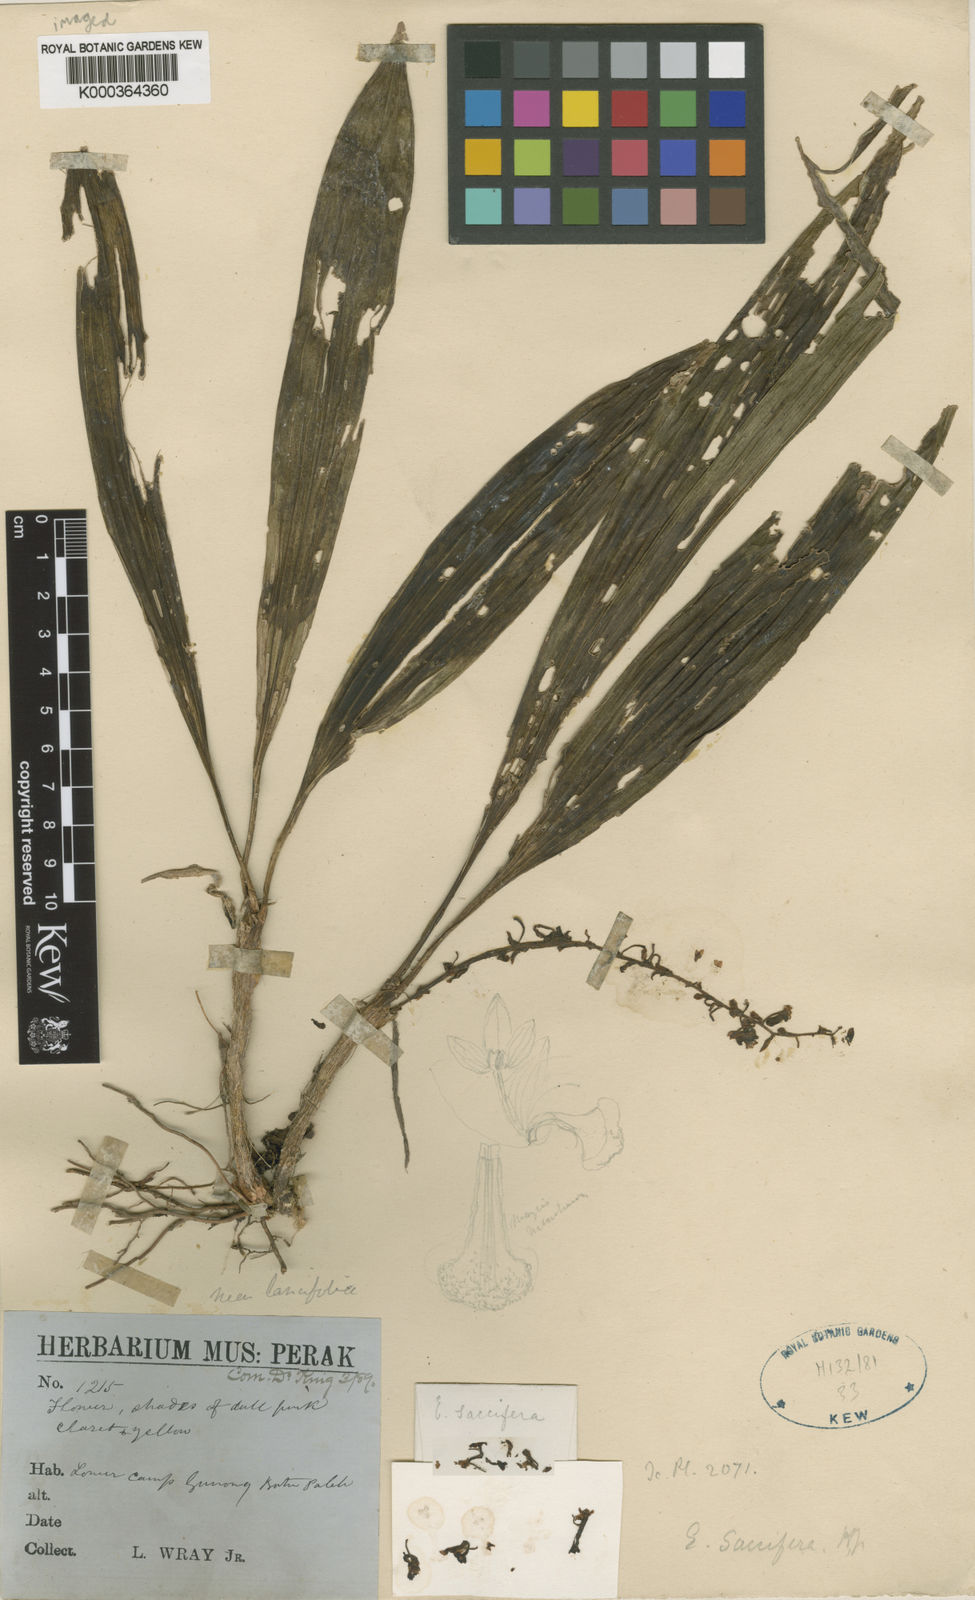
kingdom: Plantae
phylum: Tracheophyta
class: Liliopsida
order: Asparagales
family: Orchidaceae
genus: Pinalia
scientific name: Pinalia saccifera
